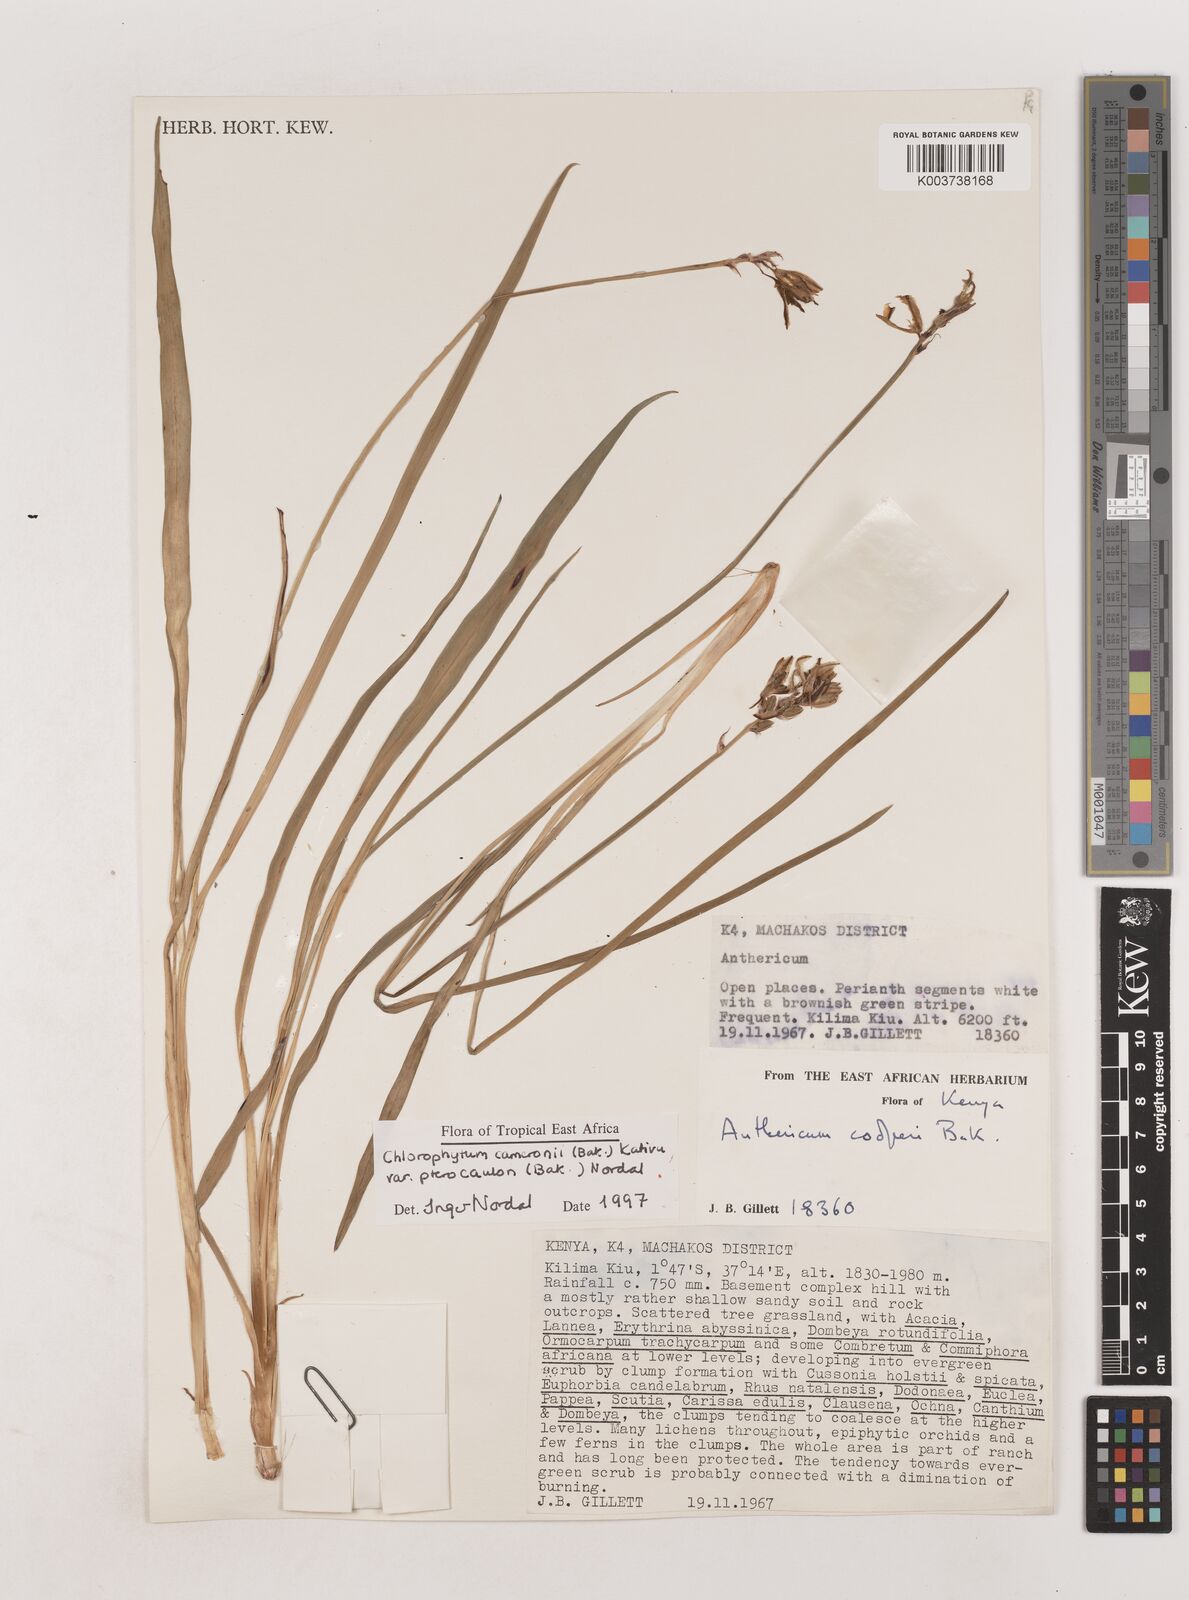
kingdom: Plantae
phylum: Tracheophyta
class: Liliopsida
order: Asparagales
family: Asparagaceae
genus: Chlorophytum
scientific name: Chlorophytum cameronii
